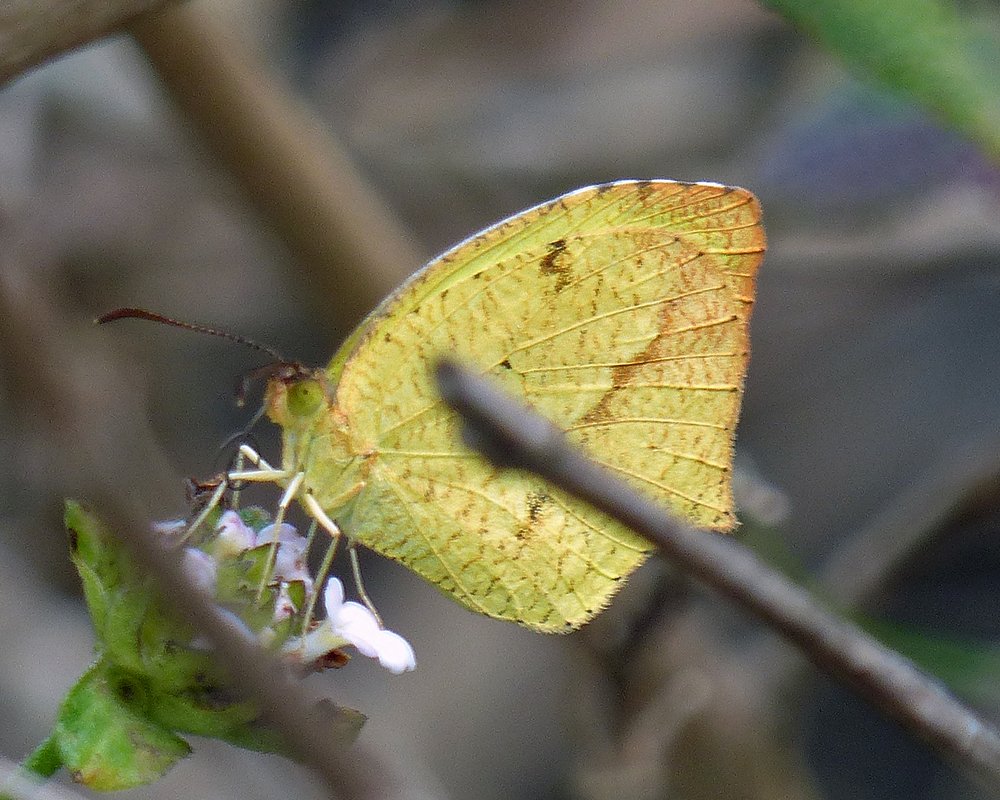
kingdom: Animalia
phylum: Arthropoda
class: Insecta
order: Lepidoptera
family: Pieridae
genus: Eurema
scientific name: Eurema boisduvaliana
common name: Boisduval's Yellow
